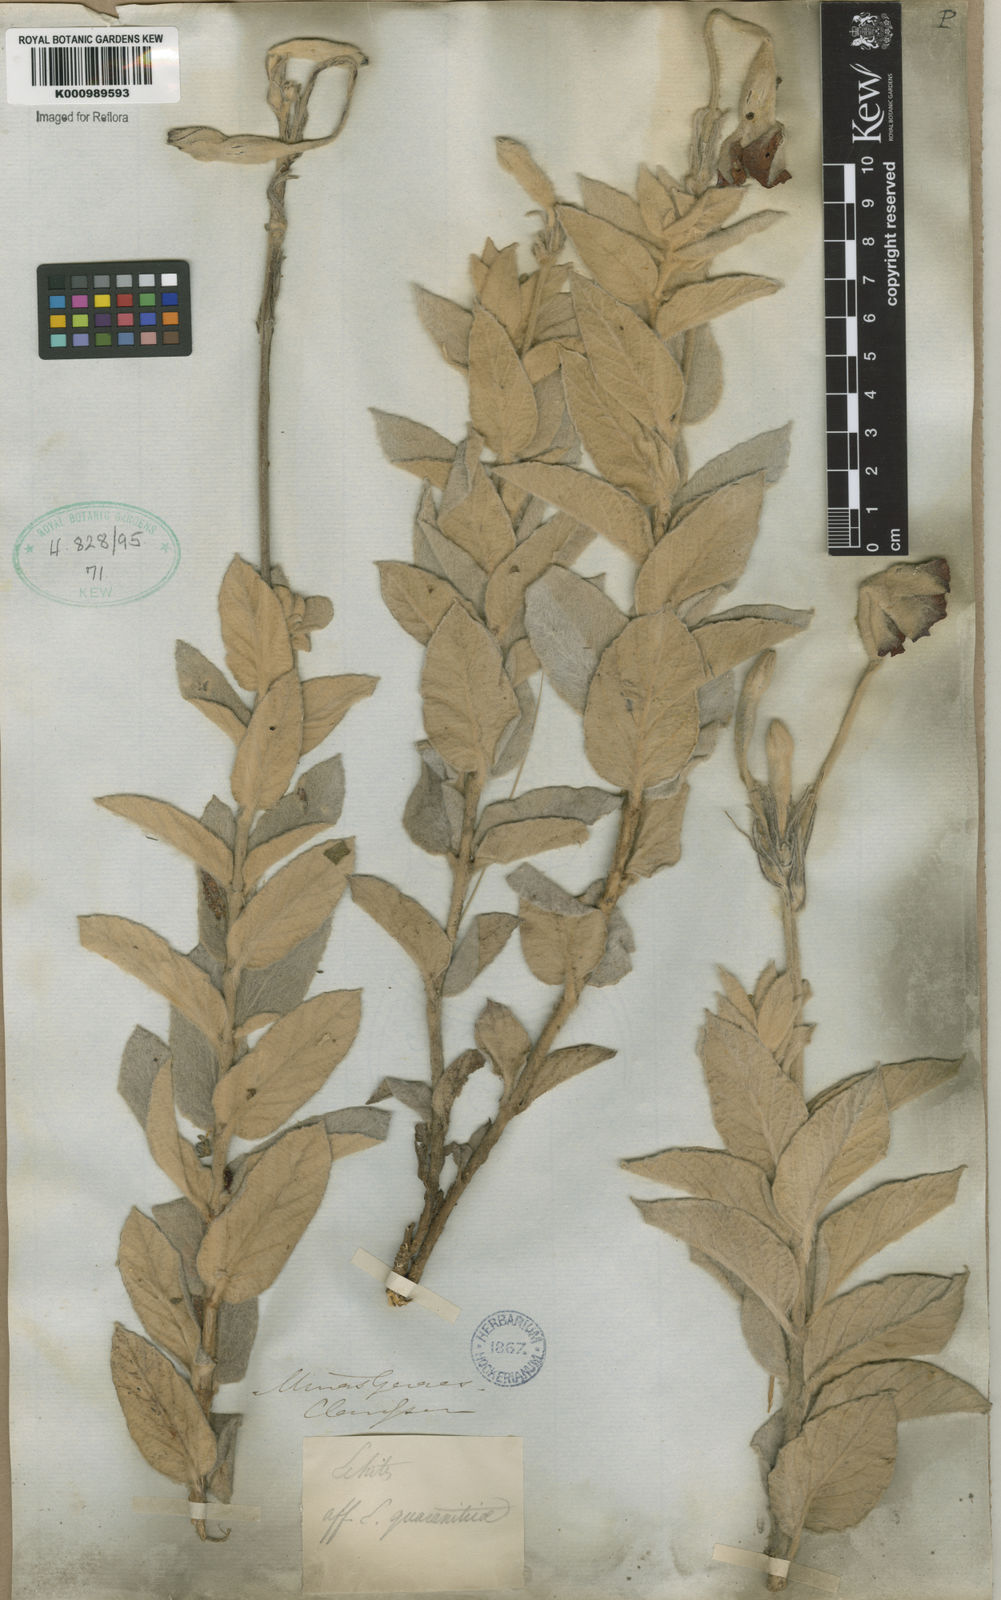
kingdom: Plantae
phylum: Tracheophyta
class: Magnoliopsida
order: Gentianales
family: Apocynaceae
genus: Mandevilla
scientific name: Mandevilla velame
